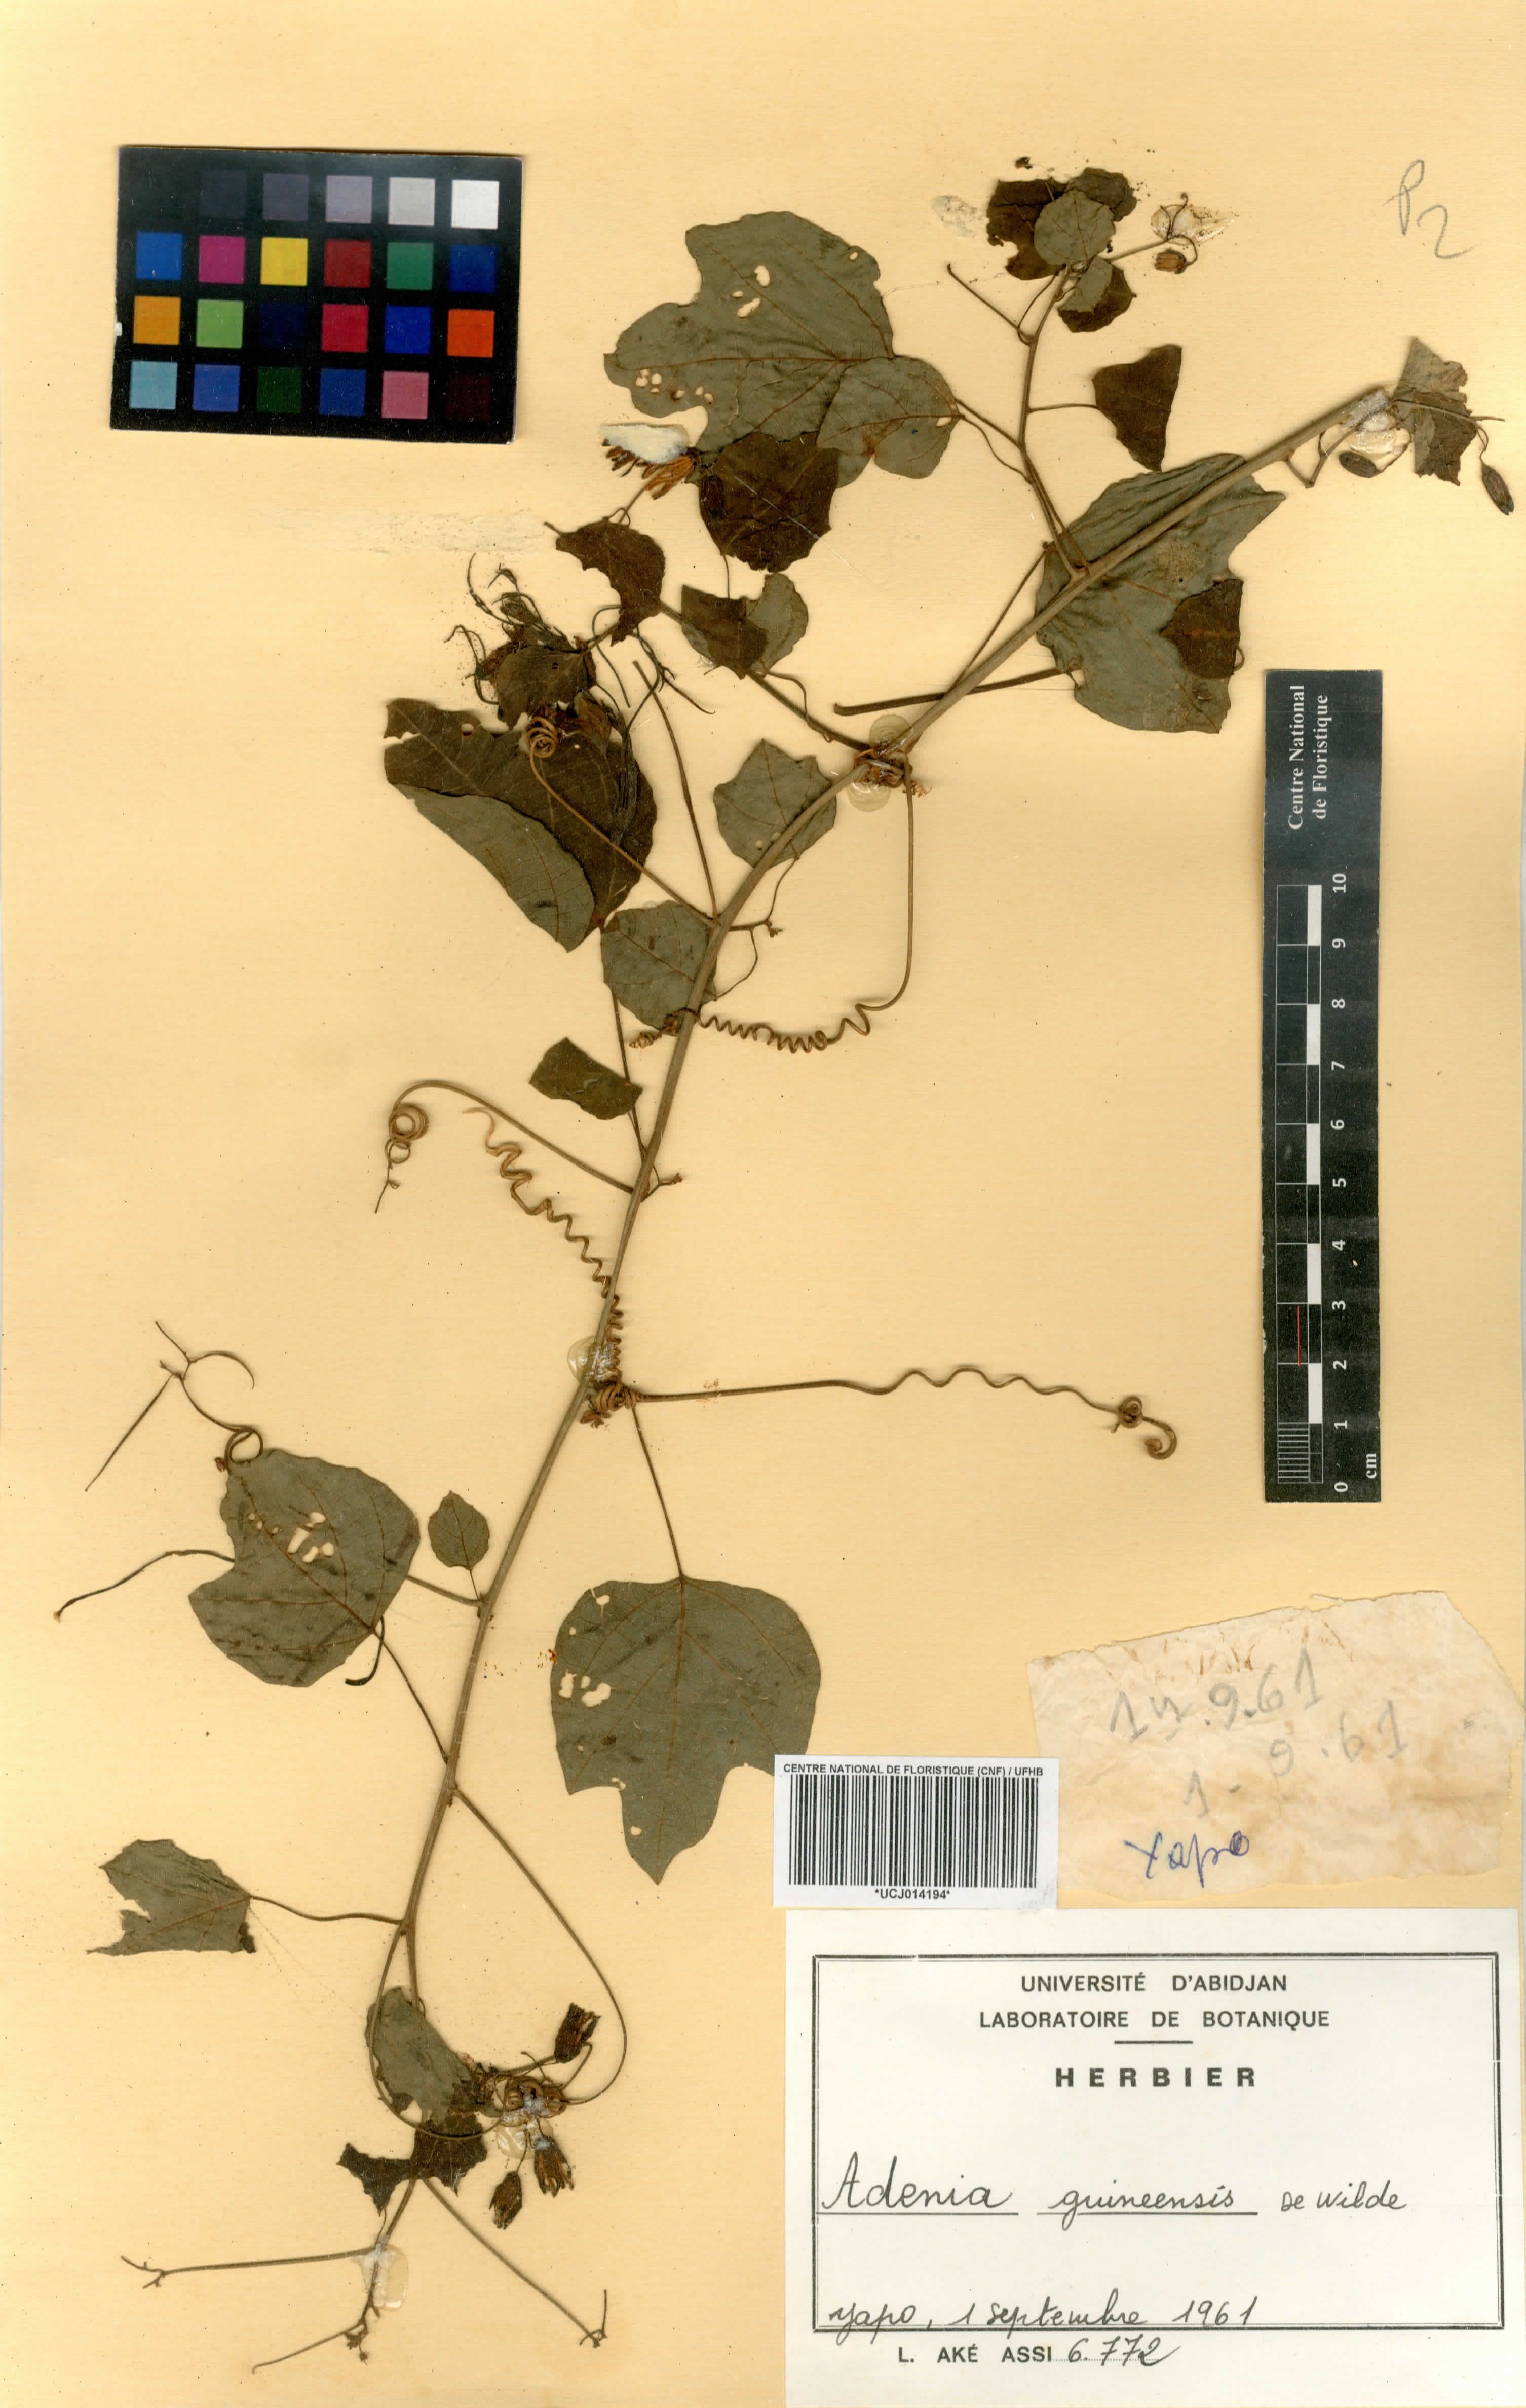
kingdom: Plantae
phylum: Tracheophyta
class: Magnoliopsida
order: Malpighiales
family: Passifloraceae
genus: Adenia
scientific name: Adenia cissampeloides
